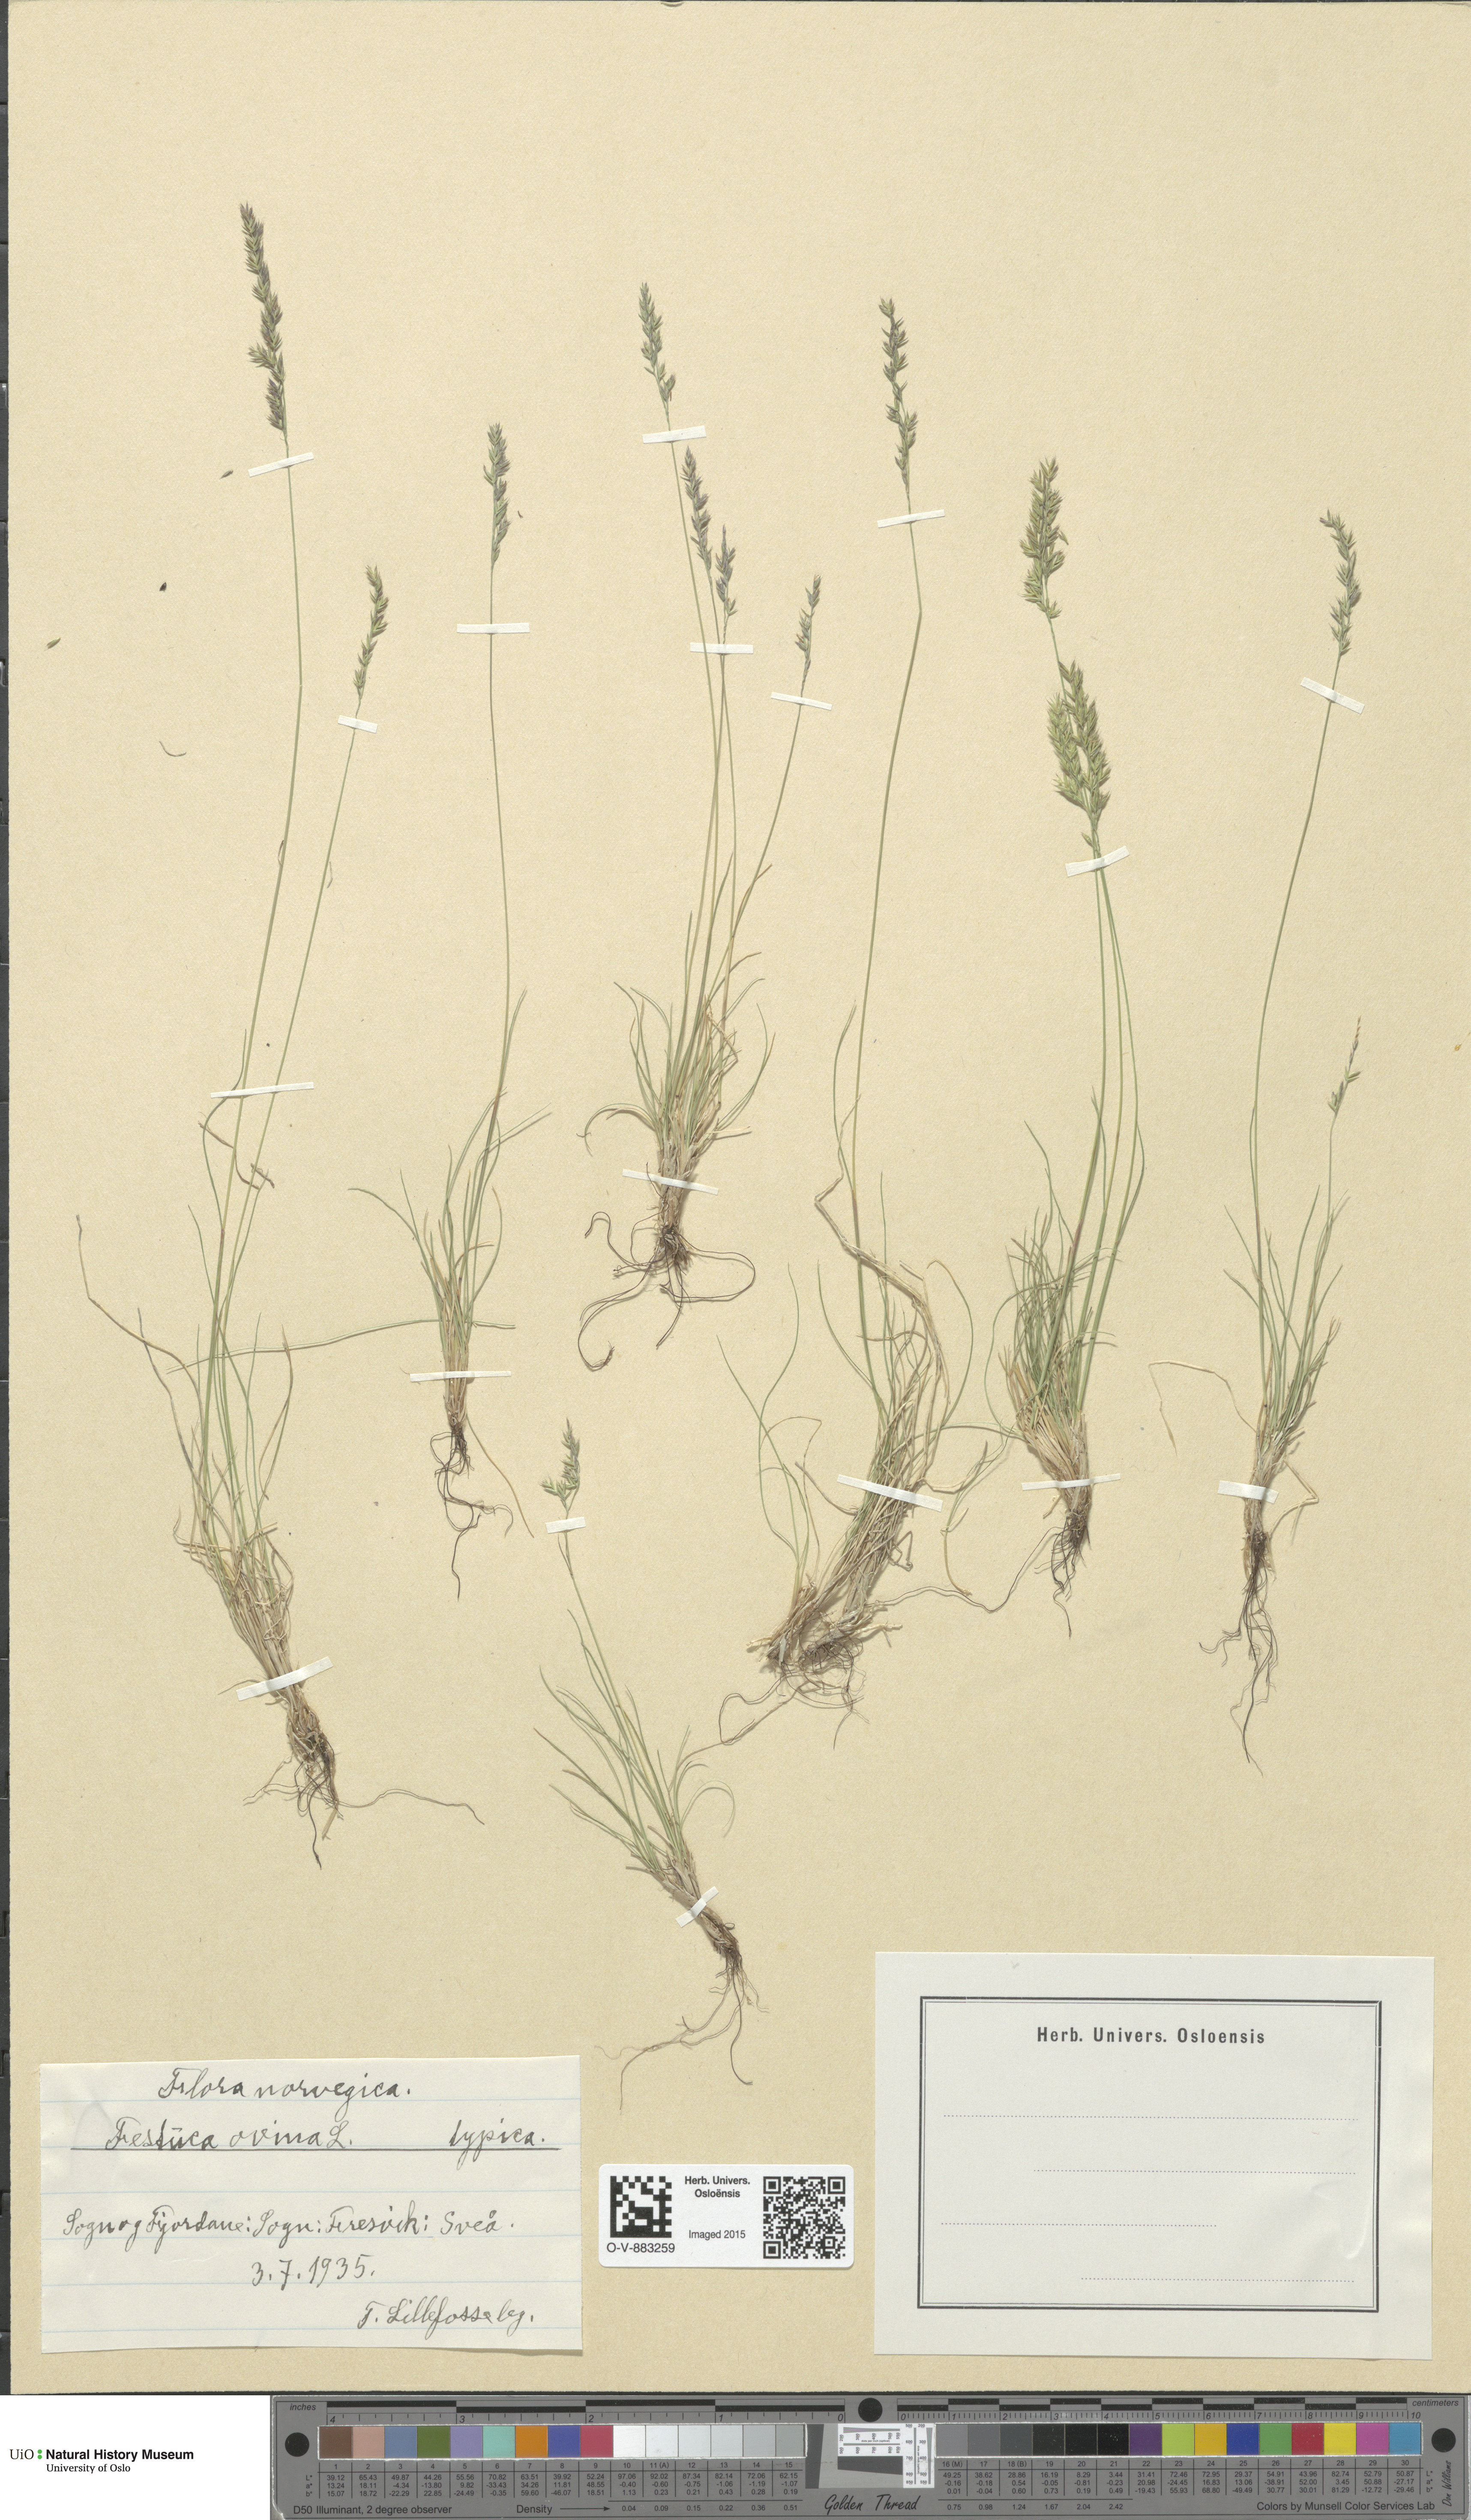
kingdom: Plantae
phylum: Tracheophyta
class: Liliopsida
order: Poales
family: Poaceae
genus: Festuca
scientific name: Festuca ovina
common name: Sheep fescue
